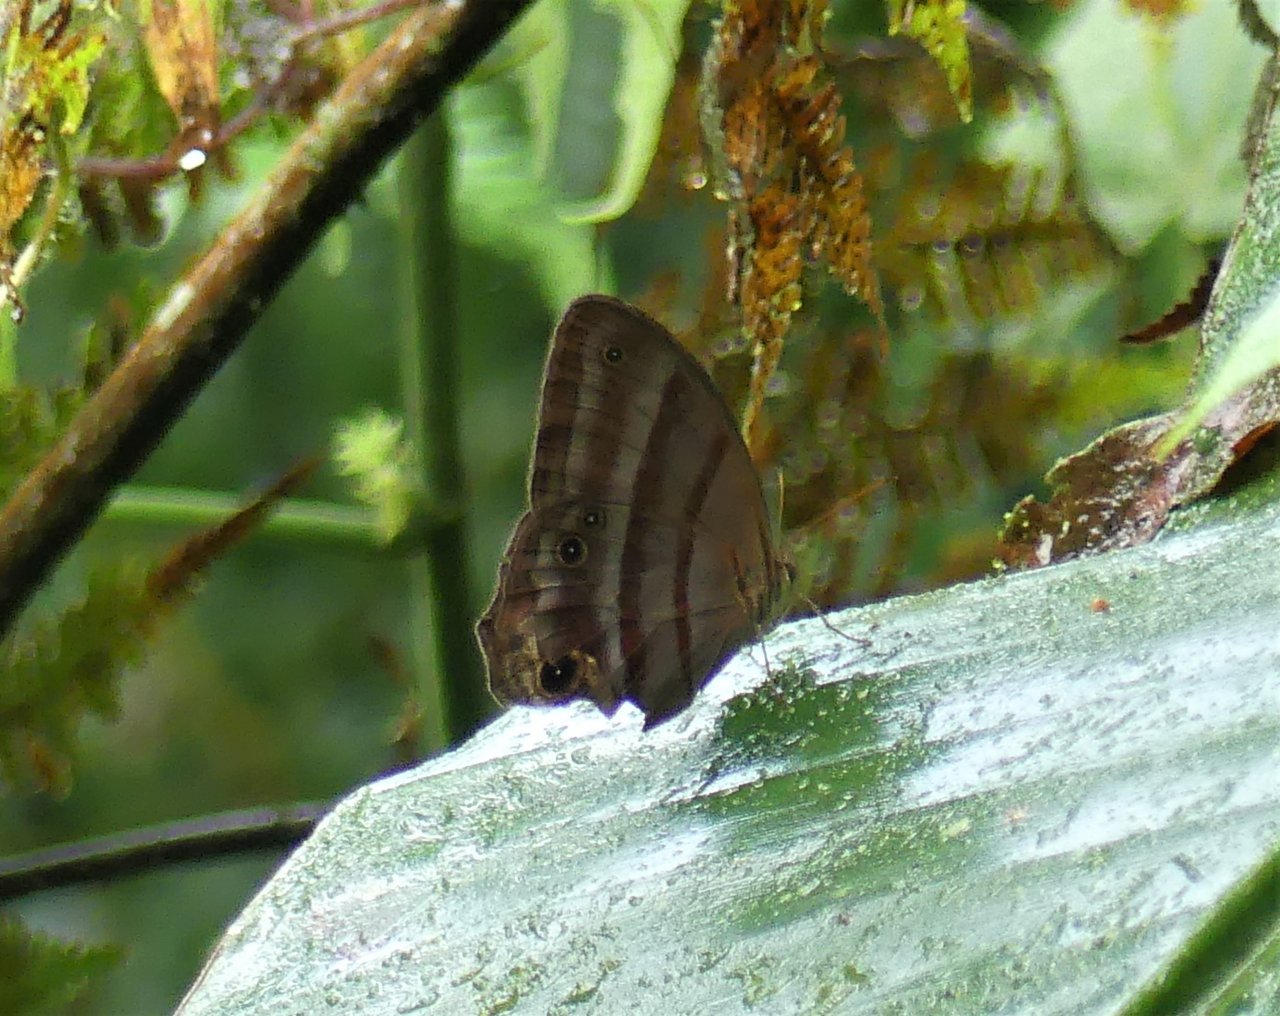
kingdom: Animalia
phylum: Arthropoda
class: Insecta
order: Lepidoptera
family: Nymphalidae
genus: Magneuptychia
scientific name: Magneuptychia tiessa
